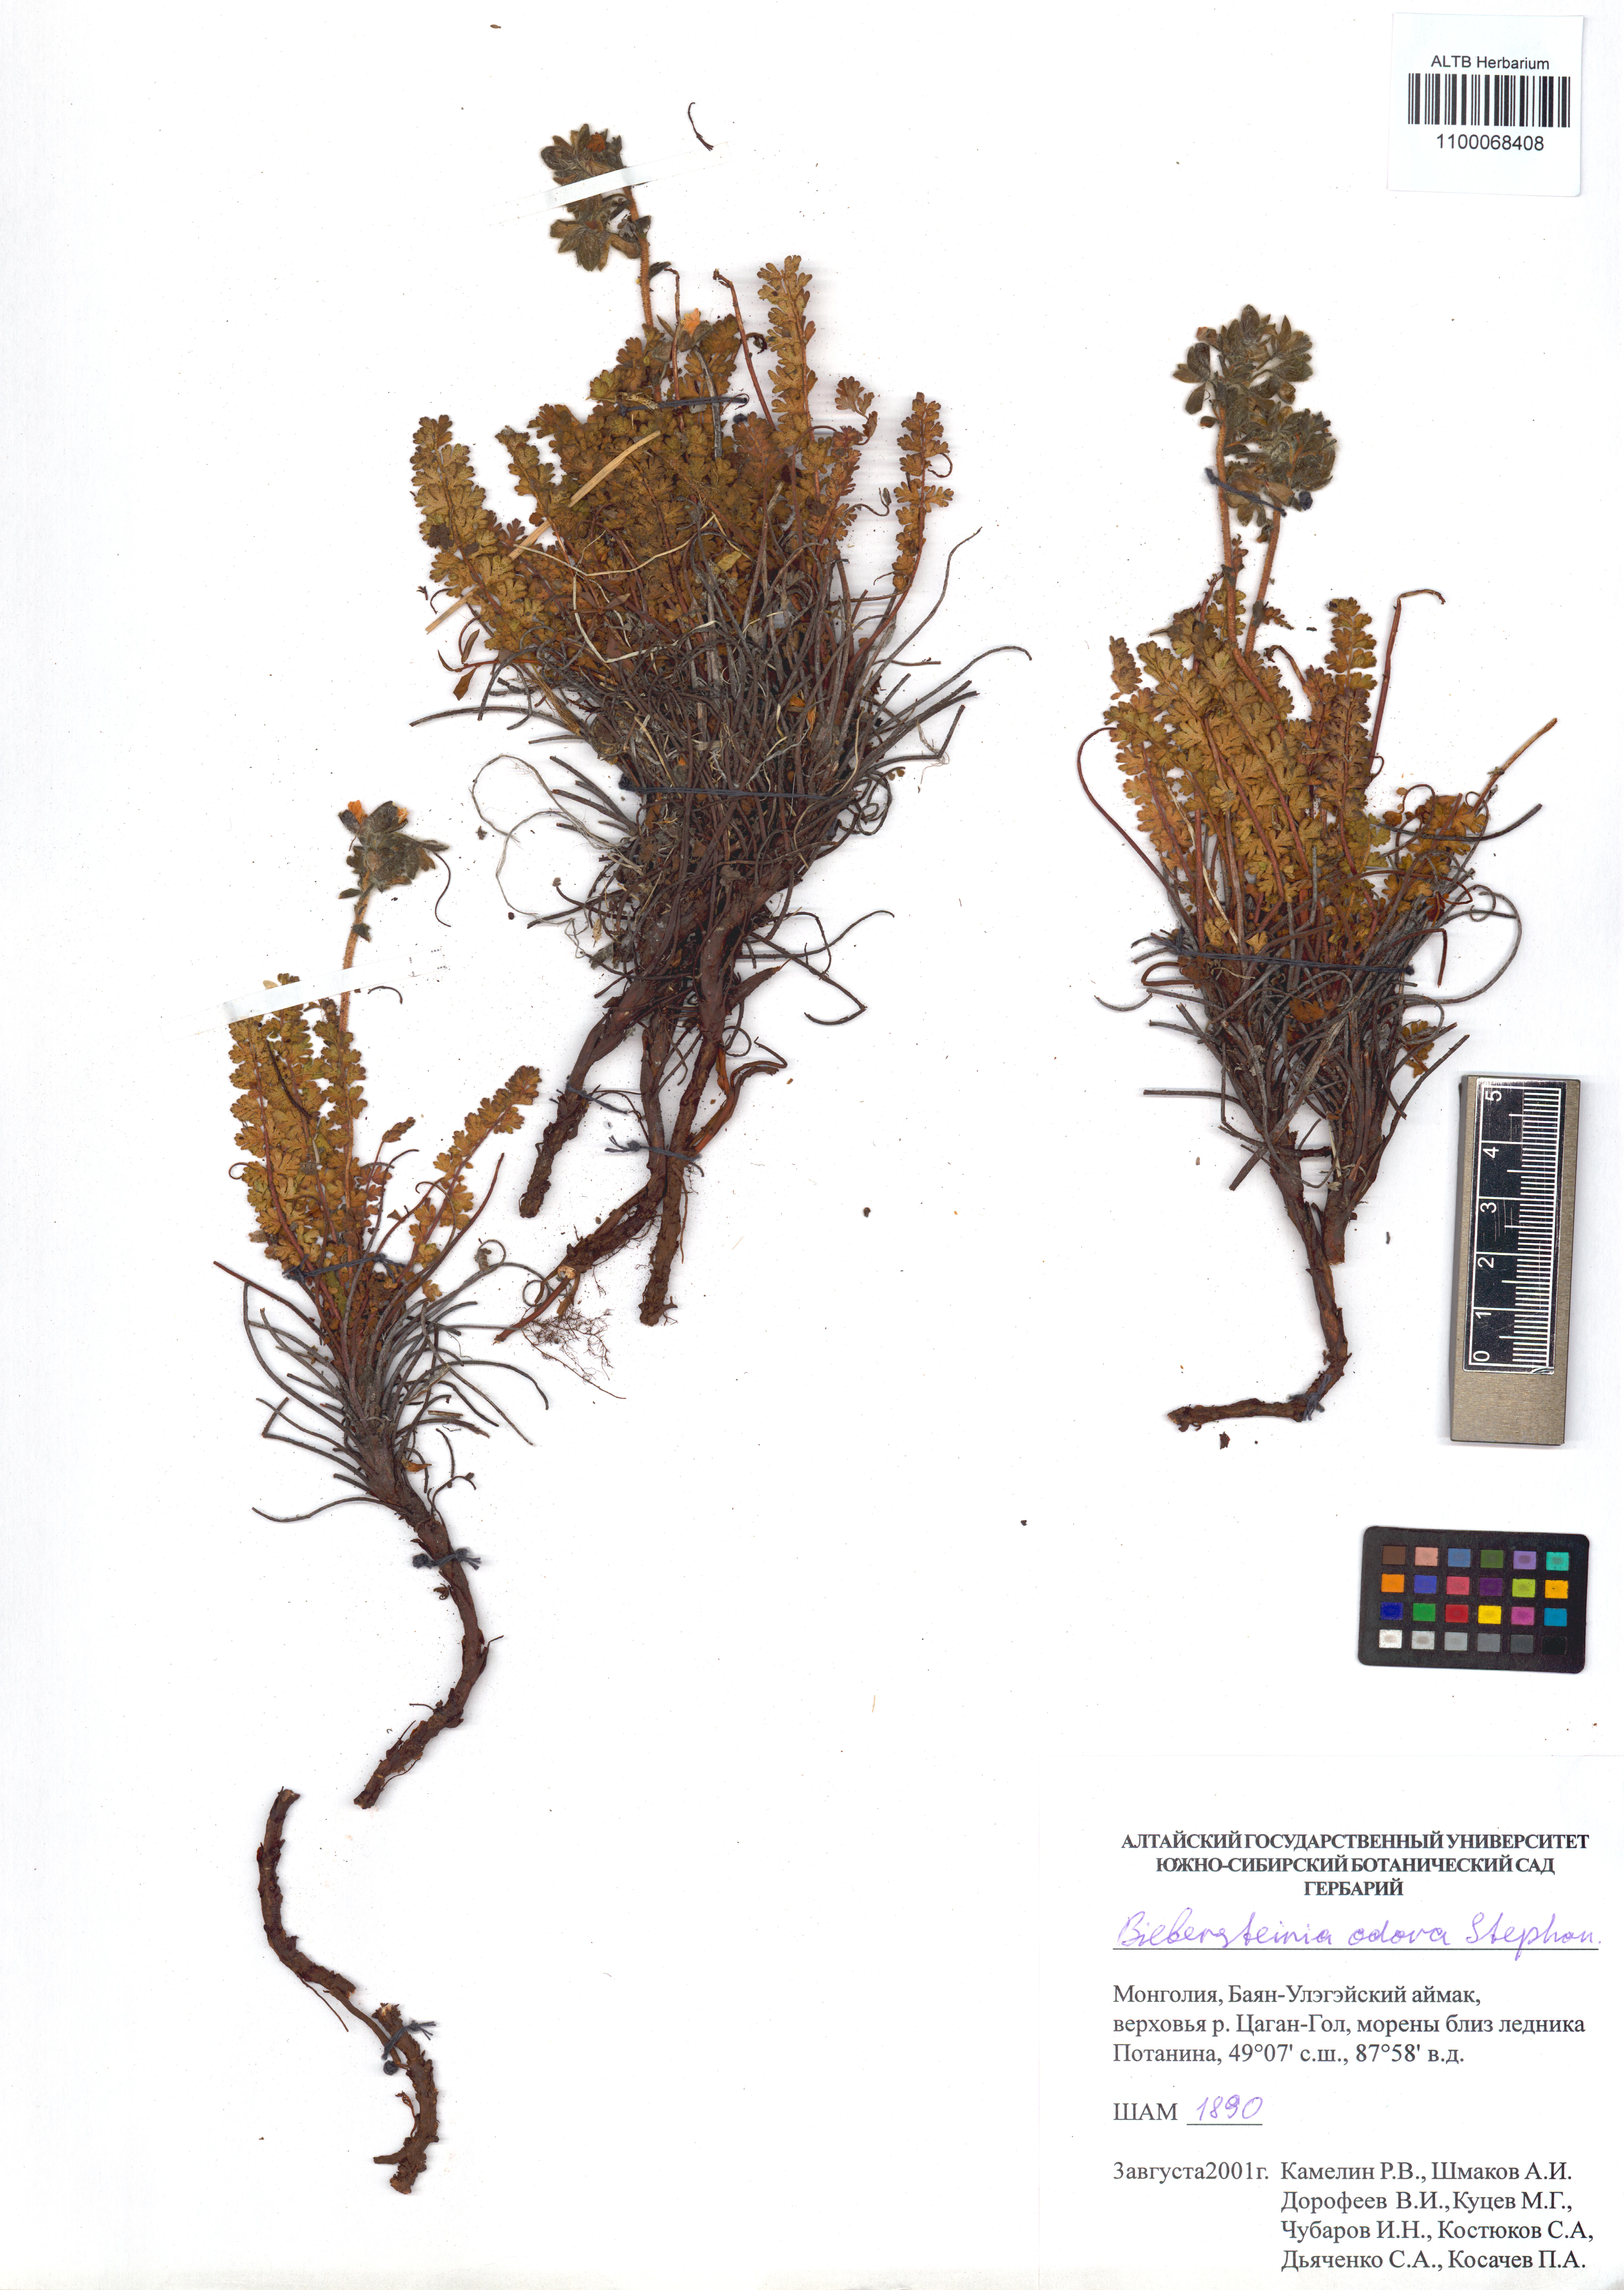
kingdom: Plantae
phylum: Tracheophyta
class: Magnoliopsida
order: Sapindales
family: Biebersteiniaceae
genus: Biebersteinia
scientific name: Biebersteinia odora
